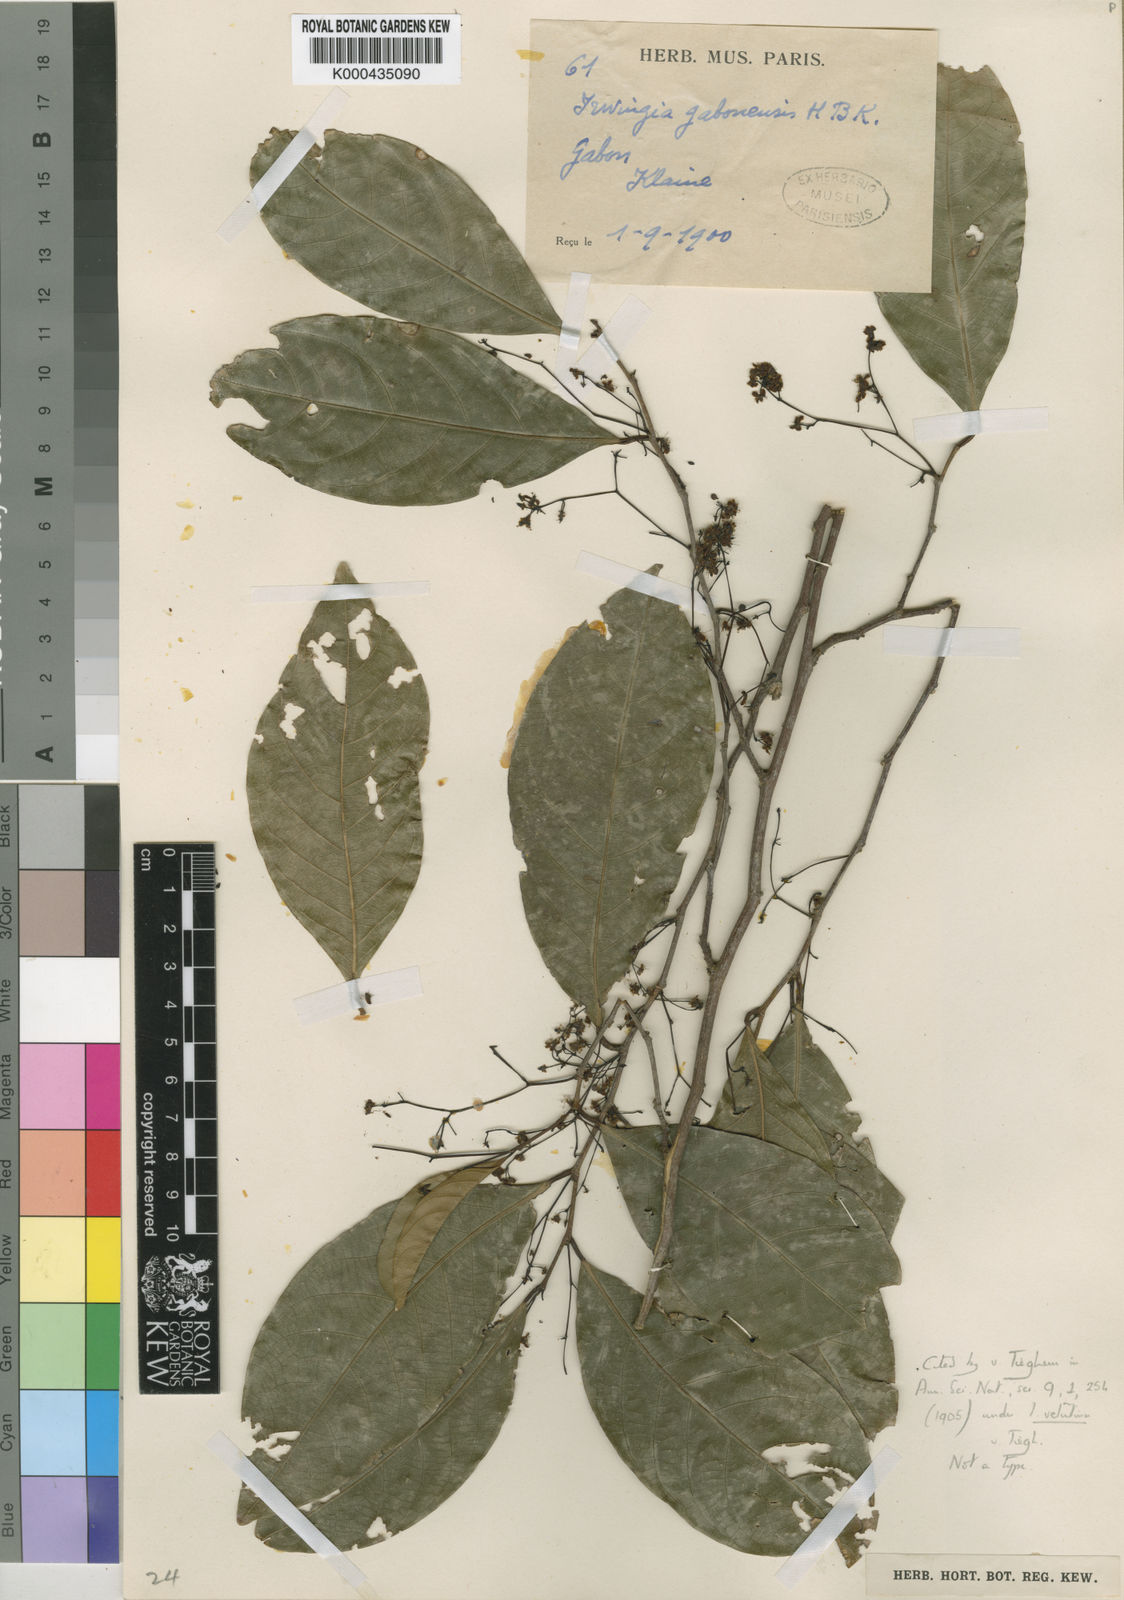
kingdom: Plantae
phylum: Tracheophyta
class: Magnoliopsida
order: Malpighiales
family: Irvingiaceae
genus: Irvingia
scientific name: Irvingia gabonensis
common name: Rainy season bush-mango
